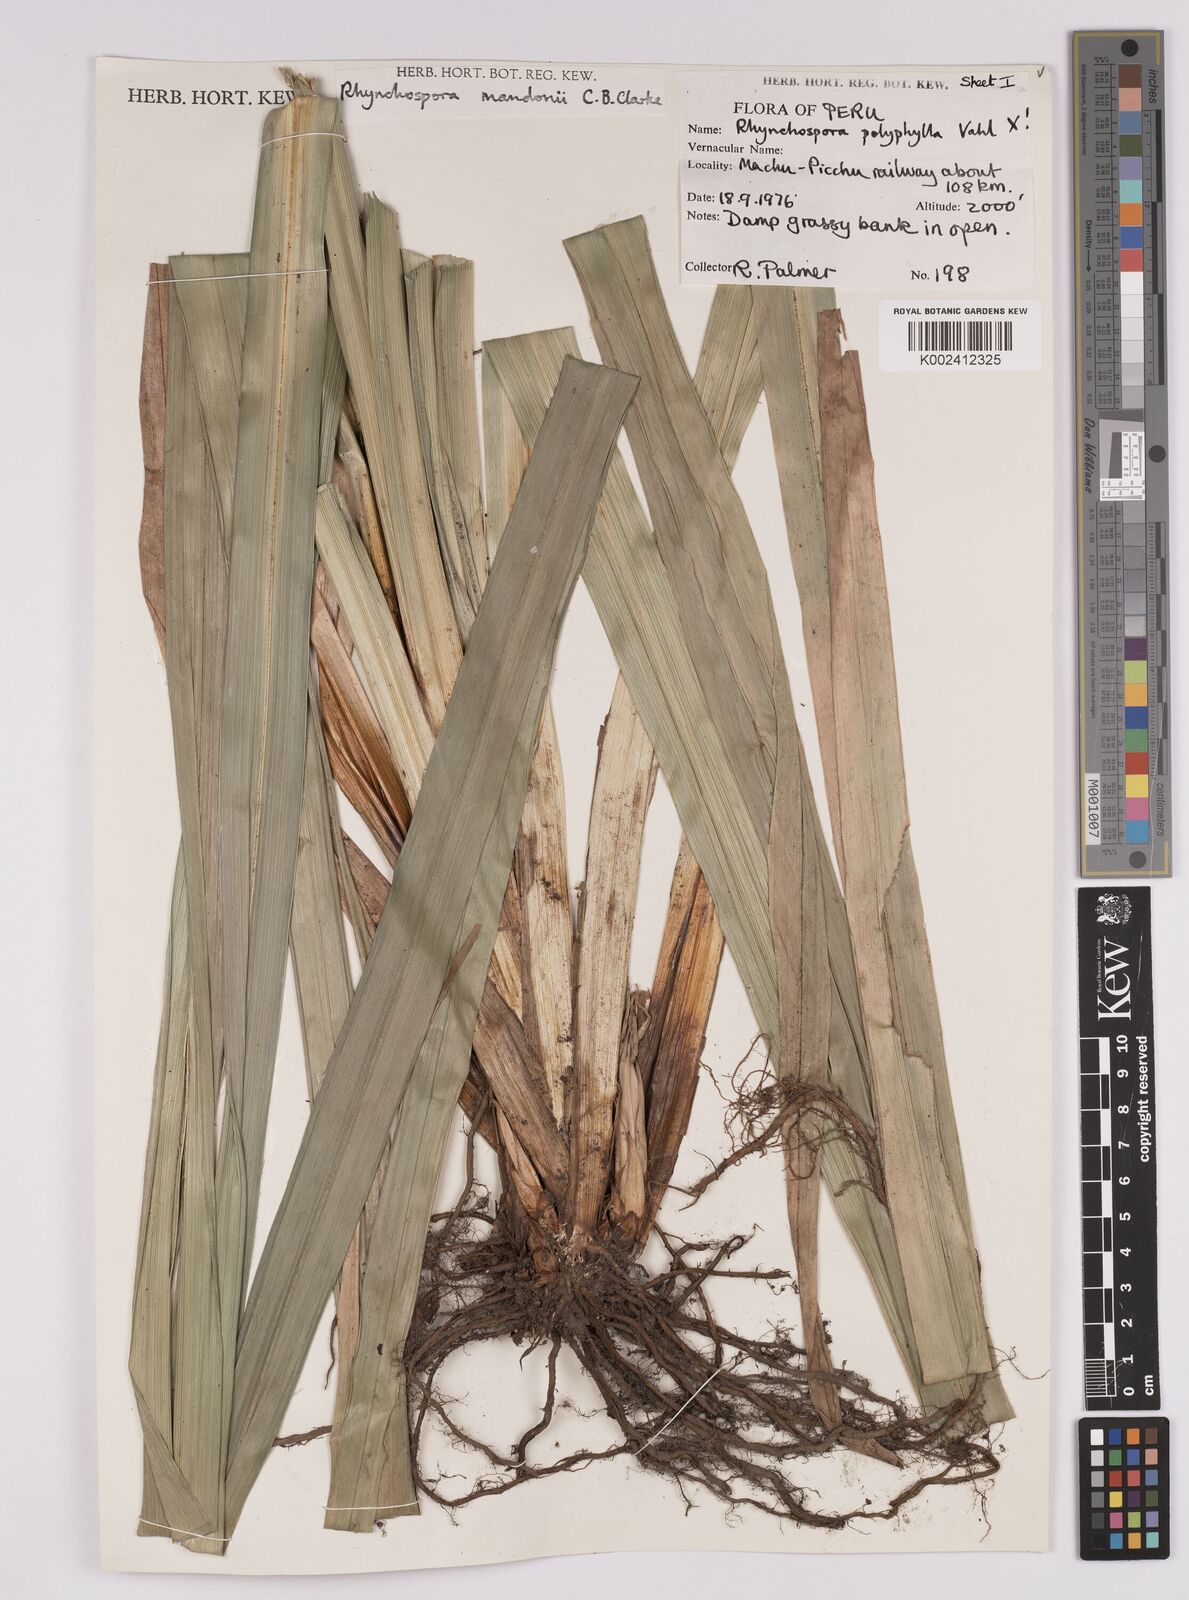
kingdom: Plantae
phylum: Tracheophyta
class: Liliopsida
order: Poales
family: Cyperaceae
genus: Rhynchospora
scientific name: Rhynchospora mandonii
